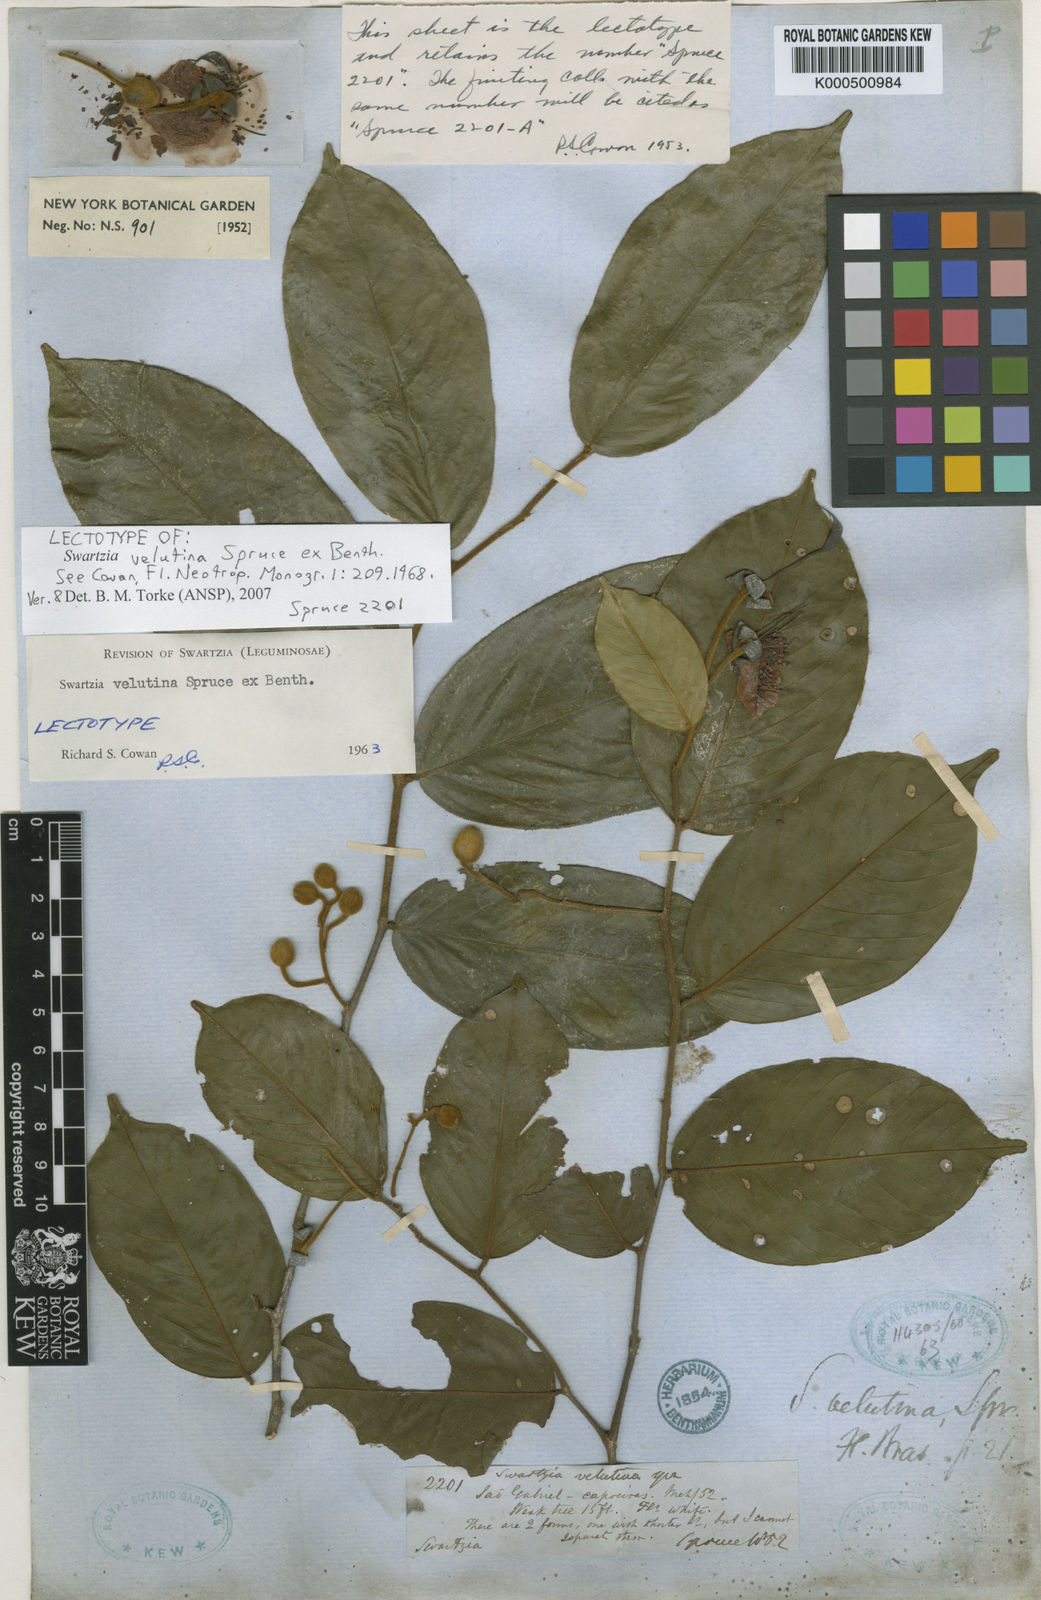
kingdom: Plantae
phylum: Tracheophyta
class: Magnoliopsida
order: Fabales
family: Fabaceae
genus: Swartzia
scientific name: Swartzia velutina
